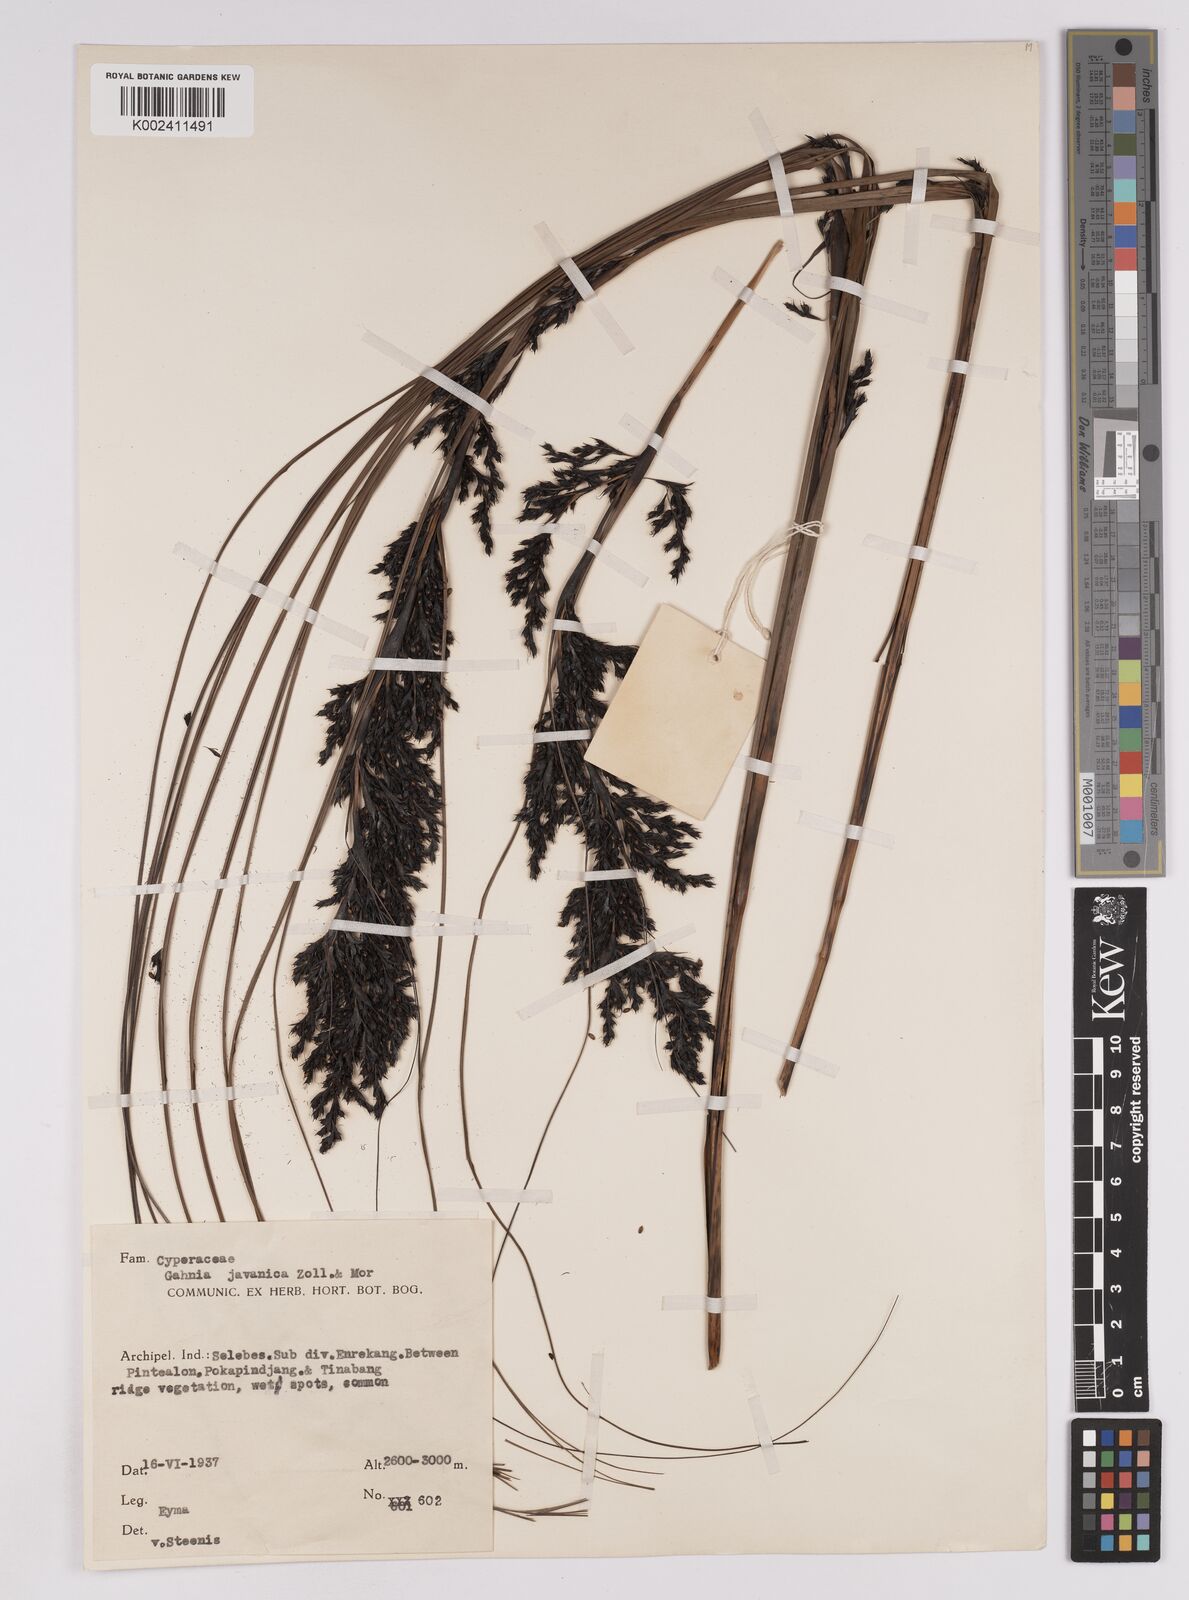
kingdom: Plantae
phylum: Tracheophyta
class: Liliopsida
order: Poales
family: Cyperaceae
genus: Gahnia
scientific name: Gahnia javanica
